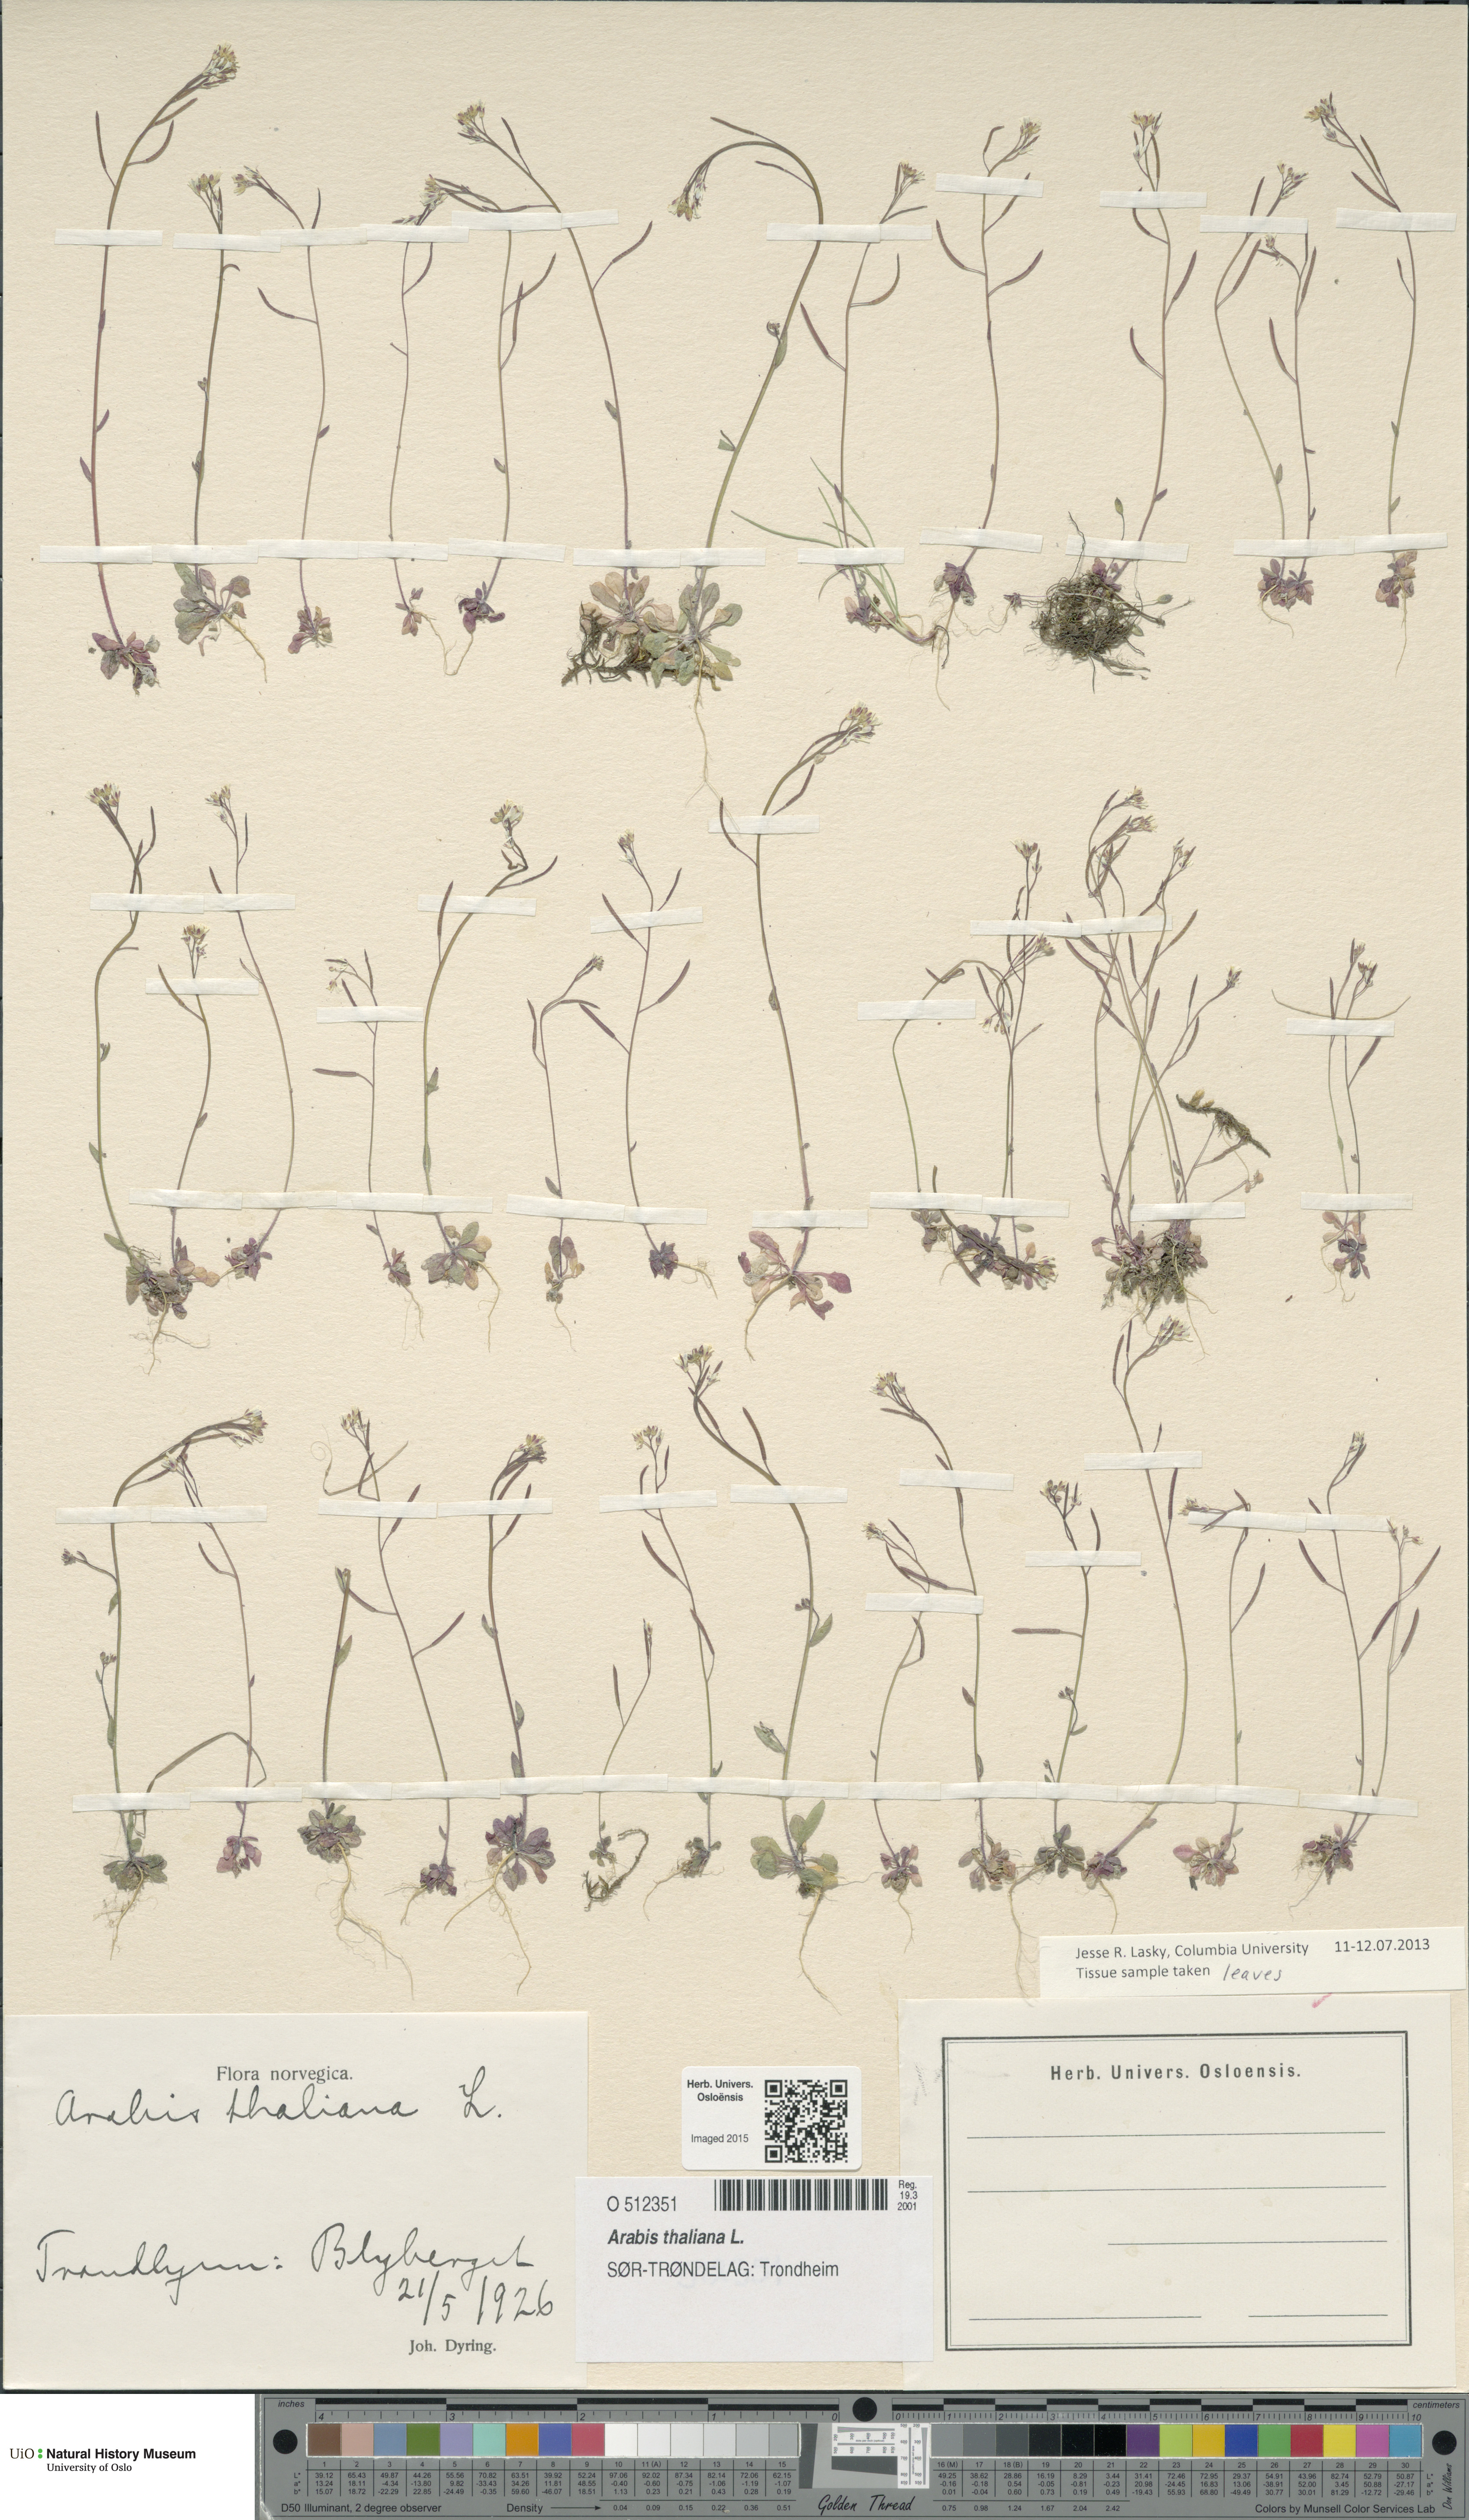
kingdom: Plantae
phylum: Tracheophyta
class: Magnoliopsida
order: Brassicales
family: Brassicaceae
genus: Arabidopsis
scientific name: Arabidopsis thaliana
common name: Thale cress
